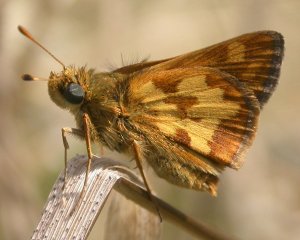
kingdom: Animalia
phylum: Arthropoda
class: Insecta
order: Lepidoptera
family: Hesperiidae
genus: Polites
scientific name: Polites coras
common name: Peck's Skipper
